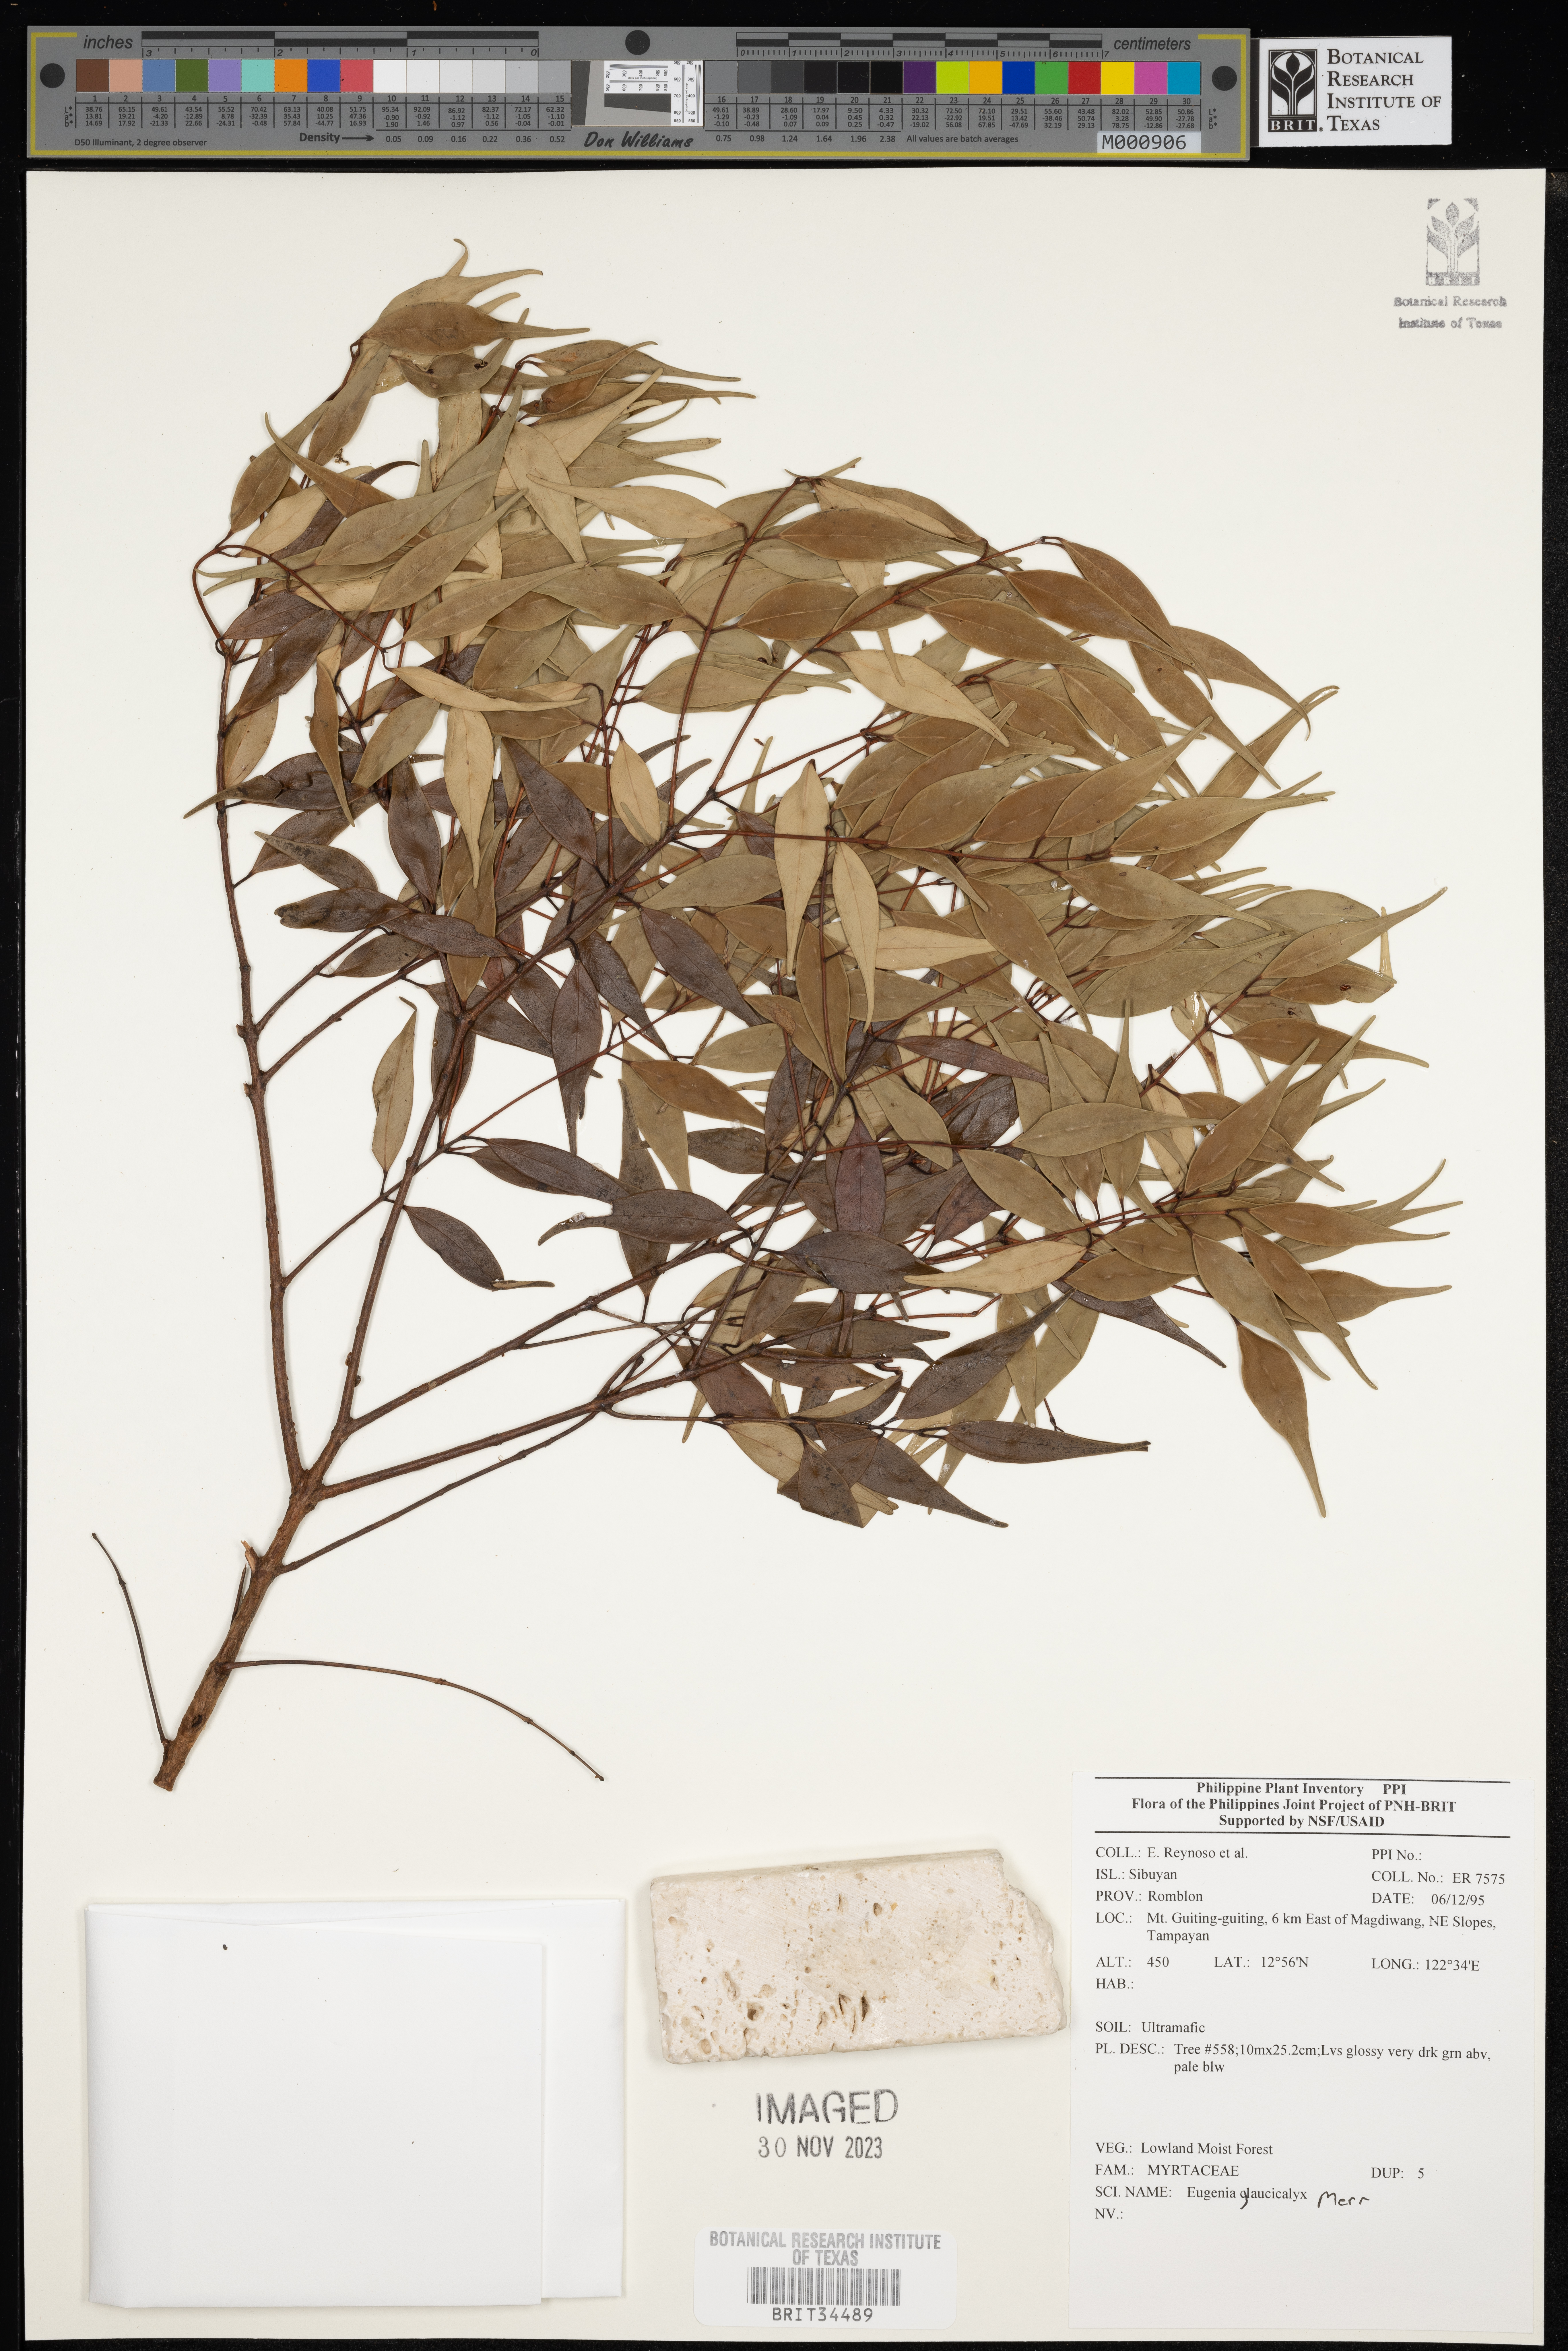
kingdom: Plantae
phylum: Tracheophyta
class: Magnoliopsida
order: Myrtales
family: Myrtaceae
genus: Eugenia
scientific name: Eugenia
